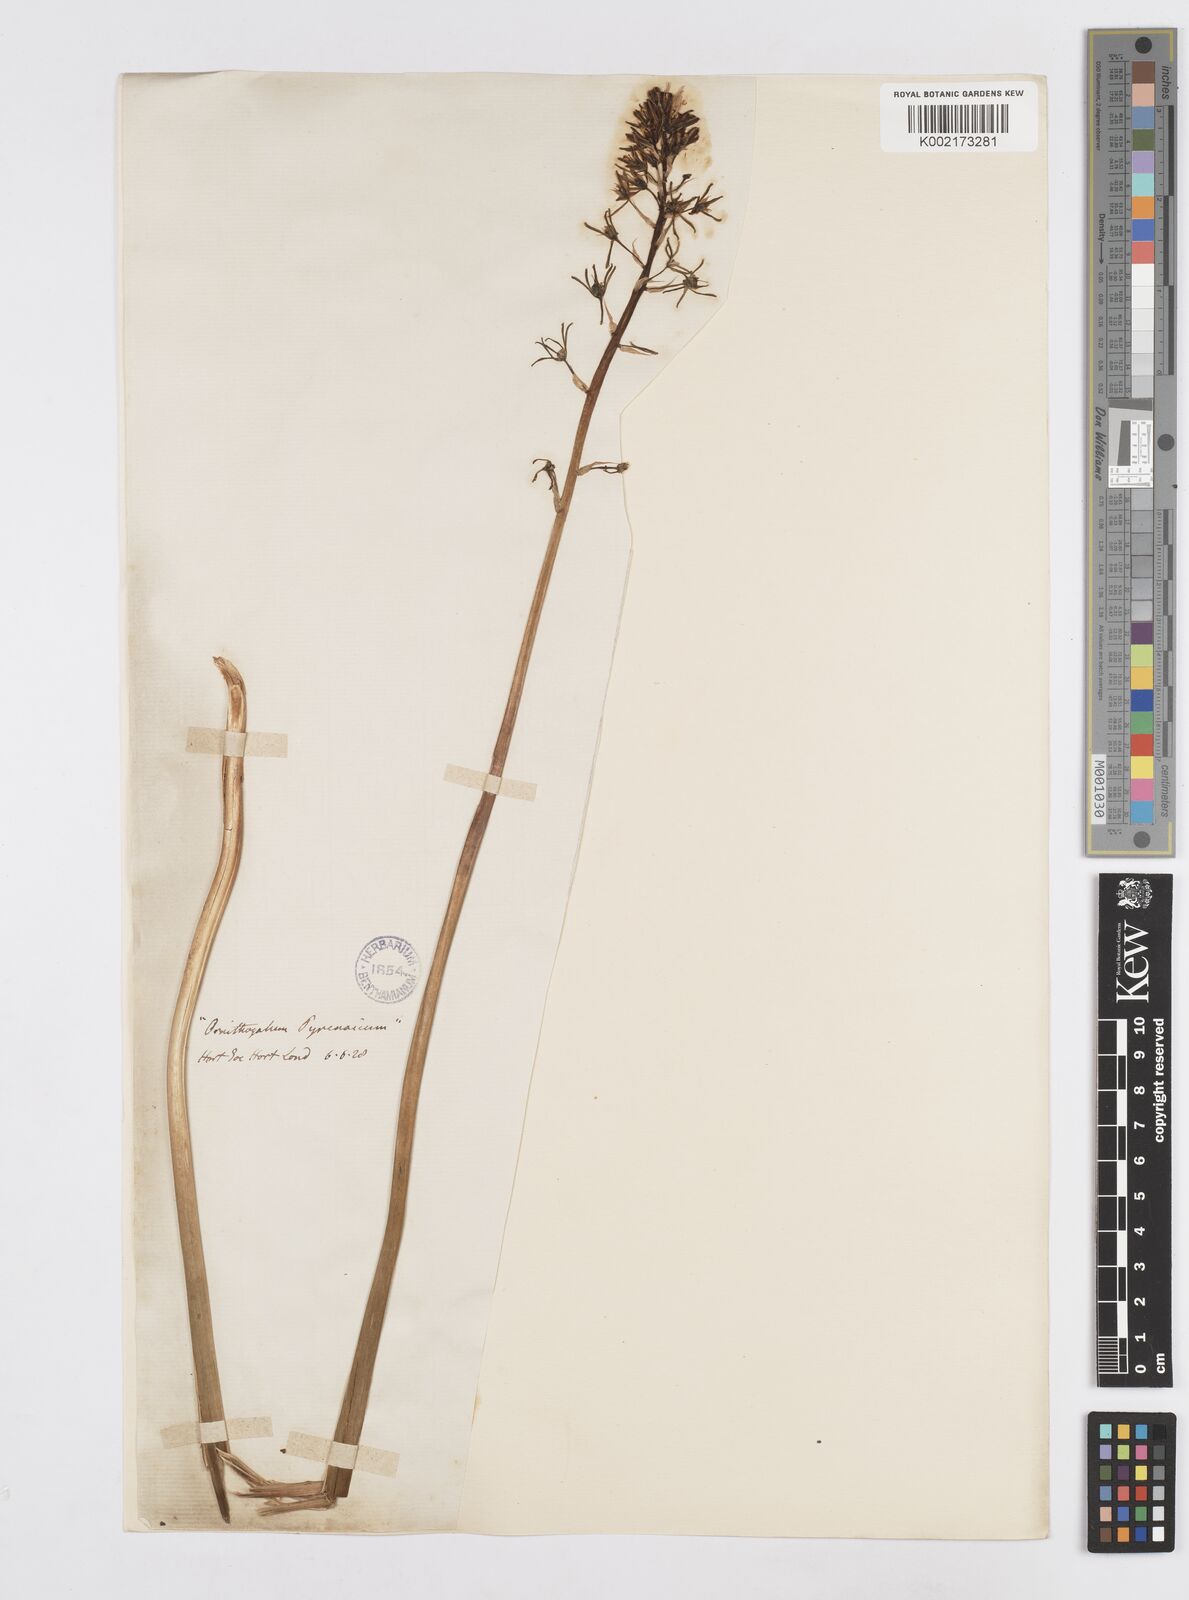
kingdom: Plantae
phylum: Tracheophyta
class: Liliopsida
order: Asparagales
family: Asparagaceae
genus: Ornithogalum
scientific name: Ornithogalum pyrenaicum
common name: Spiked star-of-bethlehem
